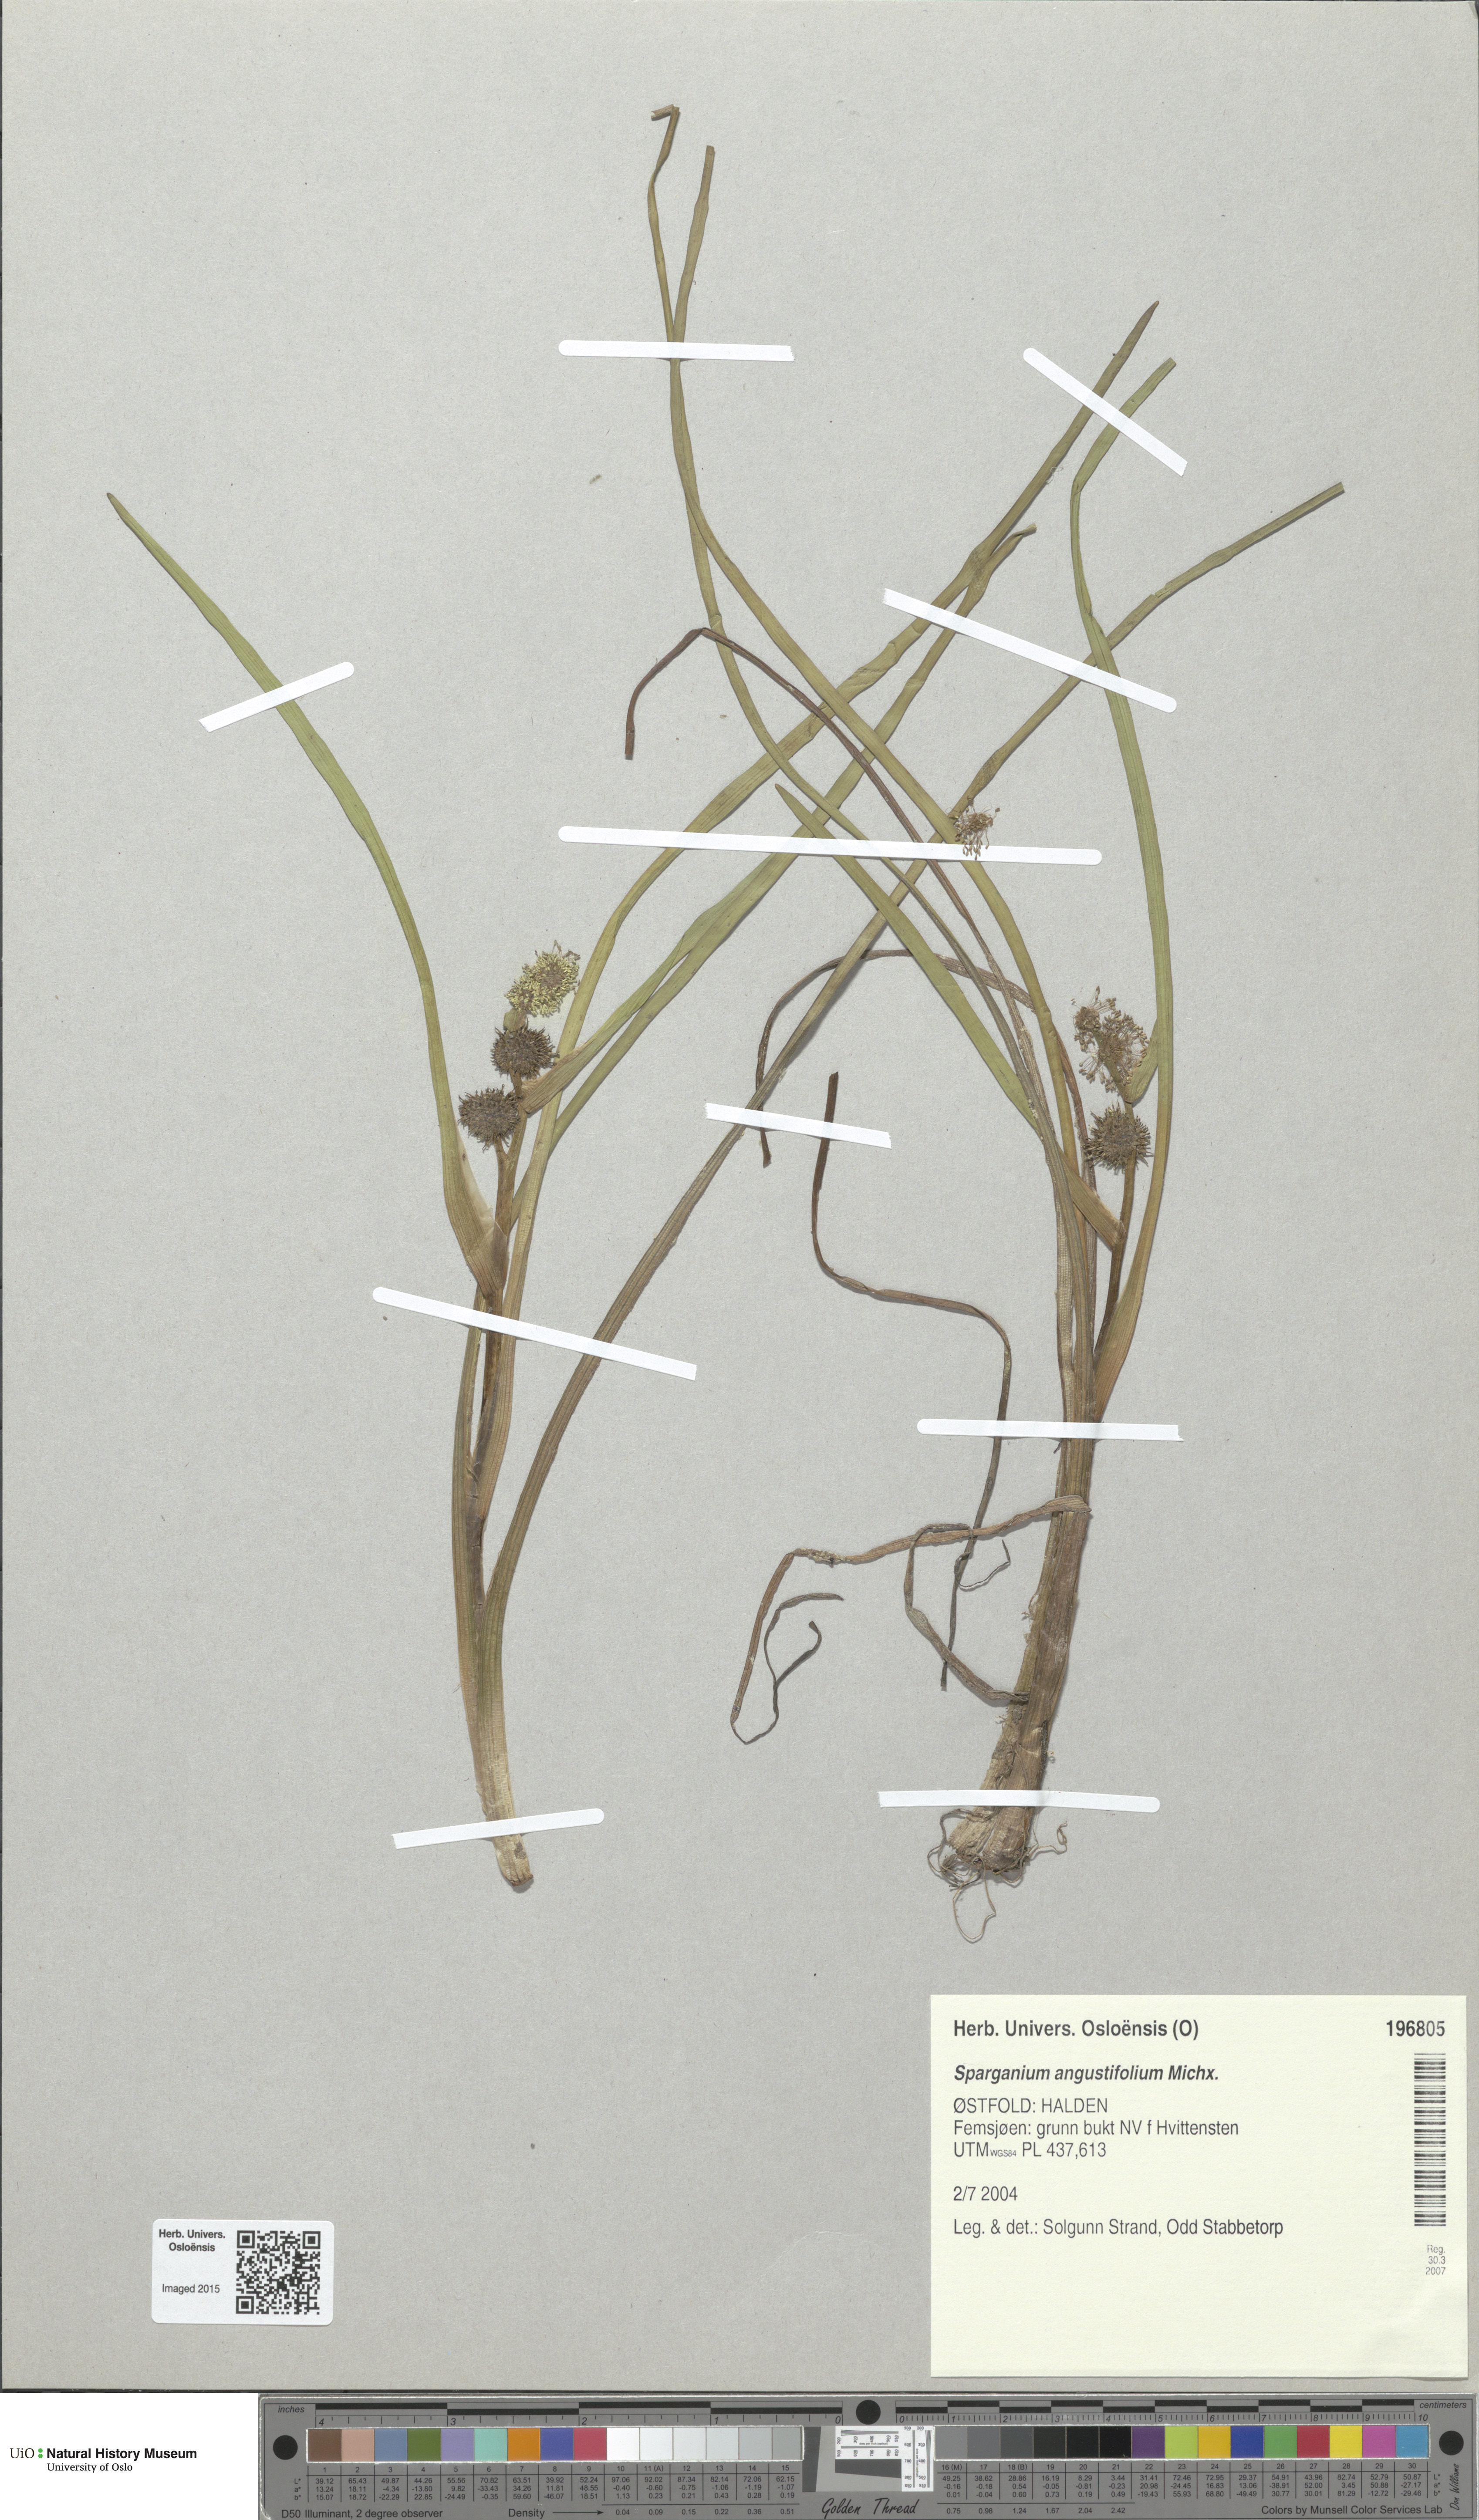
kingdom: Plantae
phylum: Tracheophyta
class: Liliopsida
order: Poales
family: Typhaceae
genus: Sparganium
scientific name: Sparganium angustifolium
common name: Floating bur-reed
